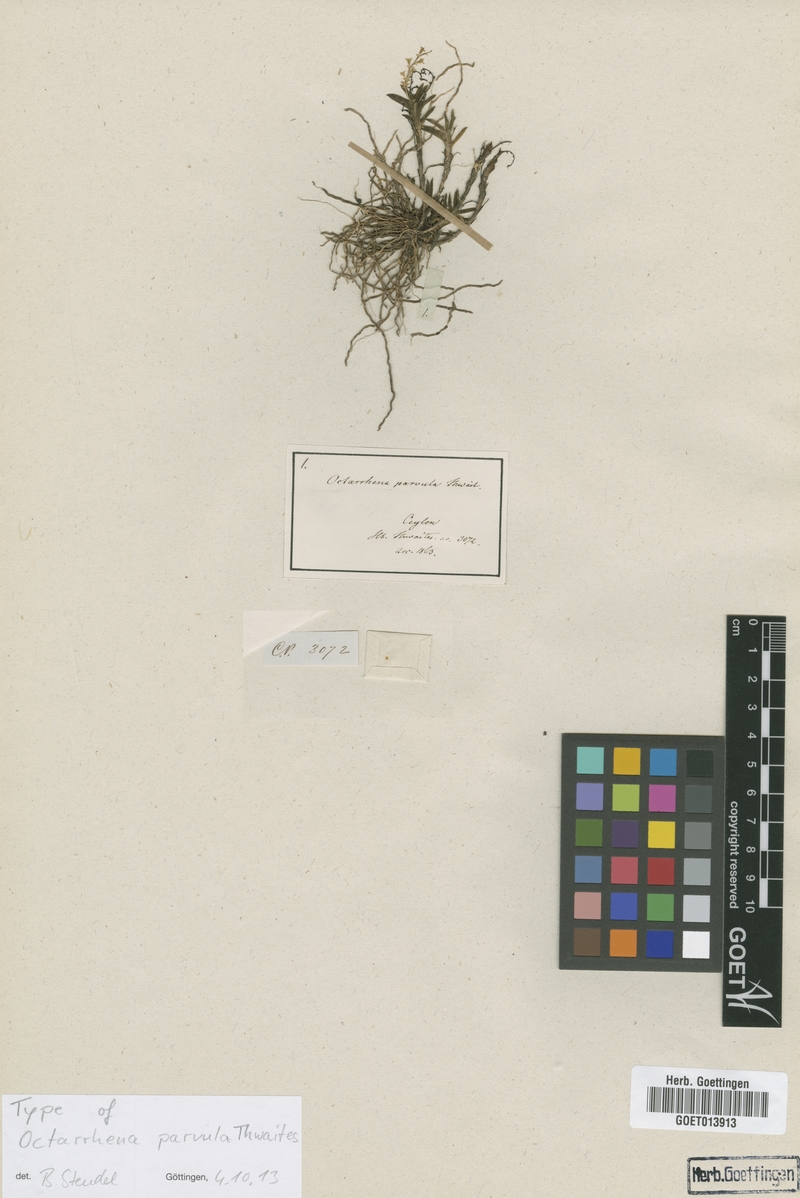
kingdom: Plantae
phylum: Tracheophyta
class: Liliopsida
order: Asparagales
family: Orchidaceae
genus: Octarrhena
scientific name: Octarrhena parvula
